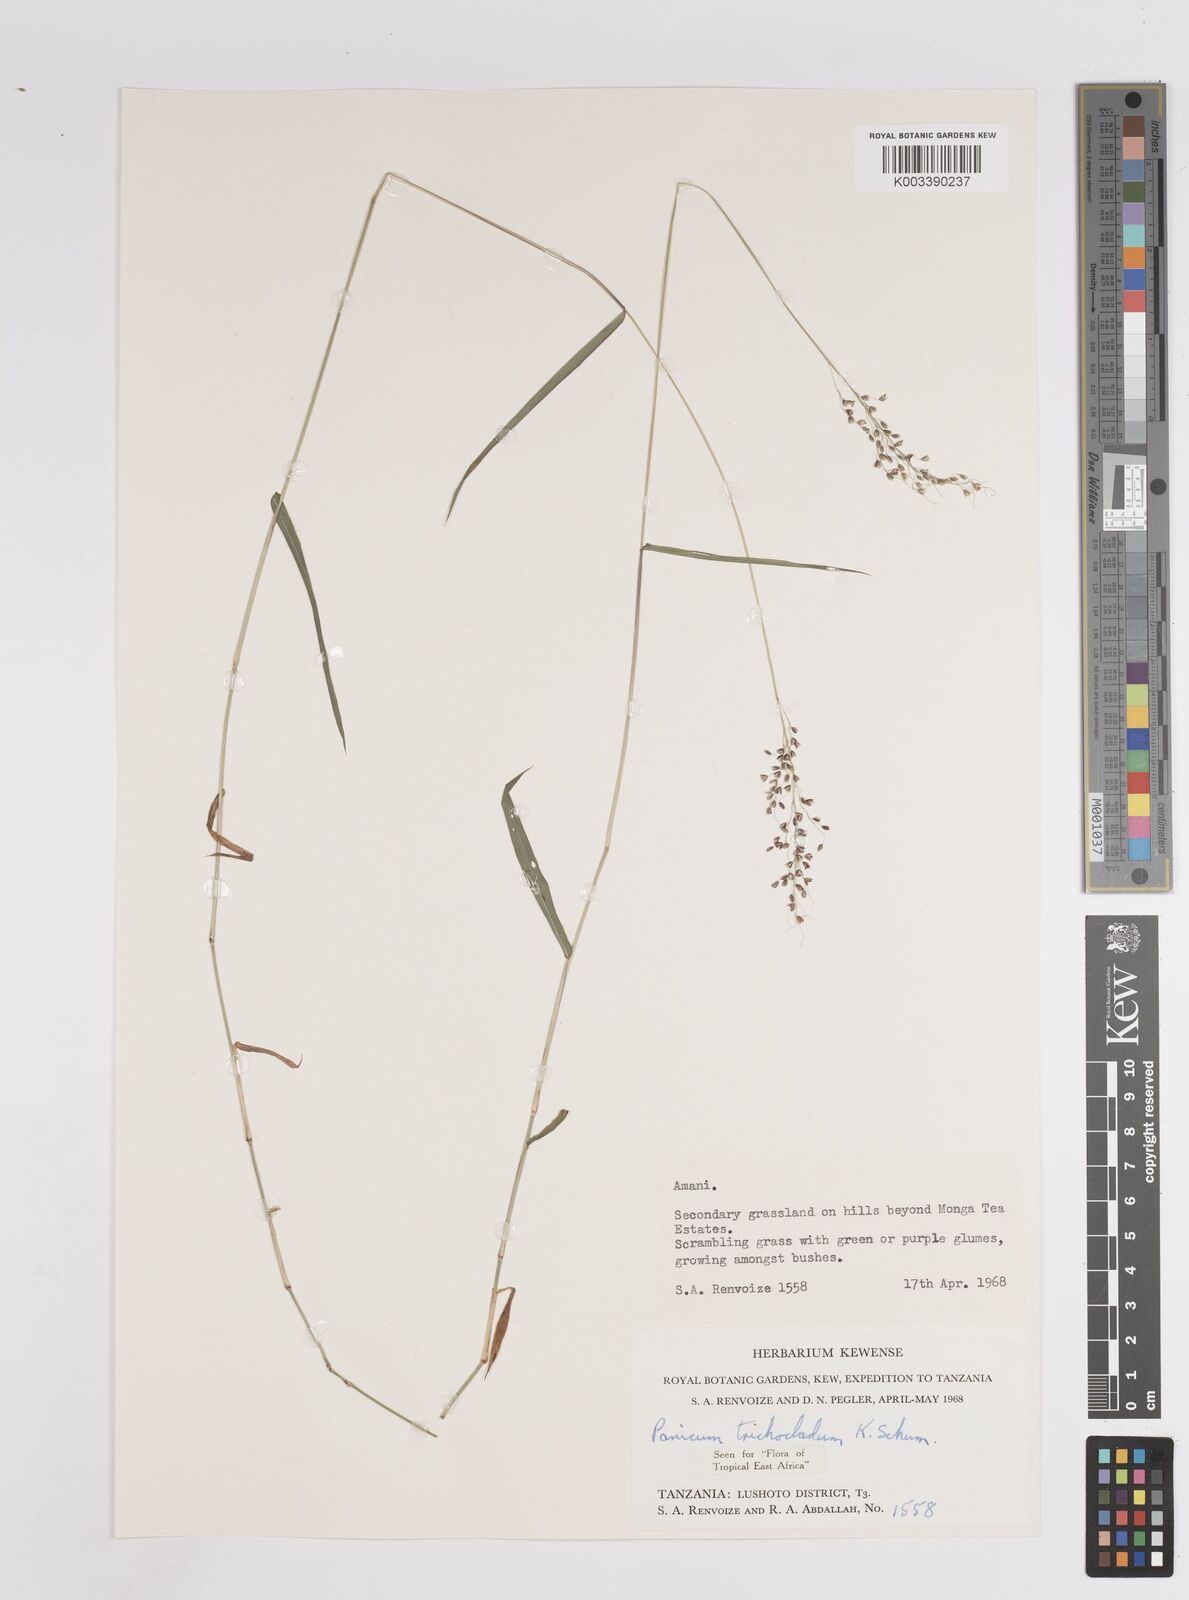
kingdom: Plantae
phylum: Tracheophyta
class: Liliopsida
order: Poales
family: Poaceae
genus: Panicum
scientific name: Panicum trichocladum
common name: Donkey grass
